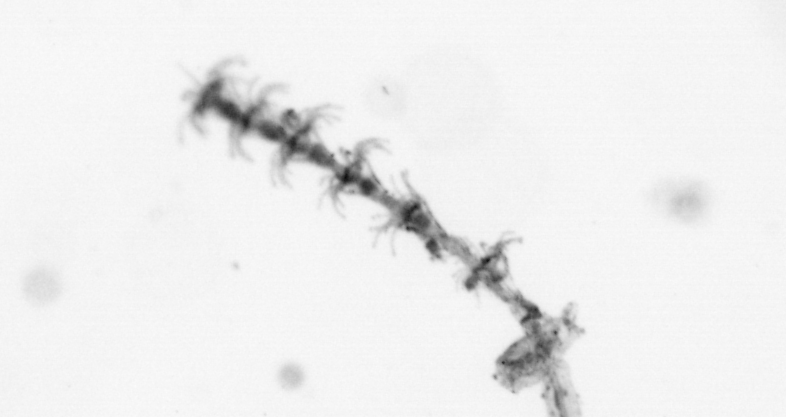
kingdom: Animalia
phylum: Cnidaria
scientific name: Cnidaria
